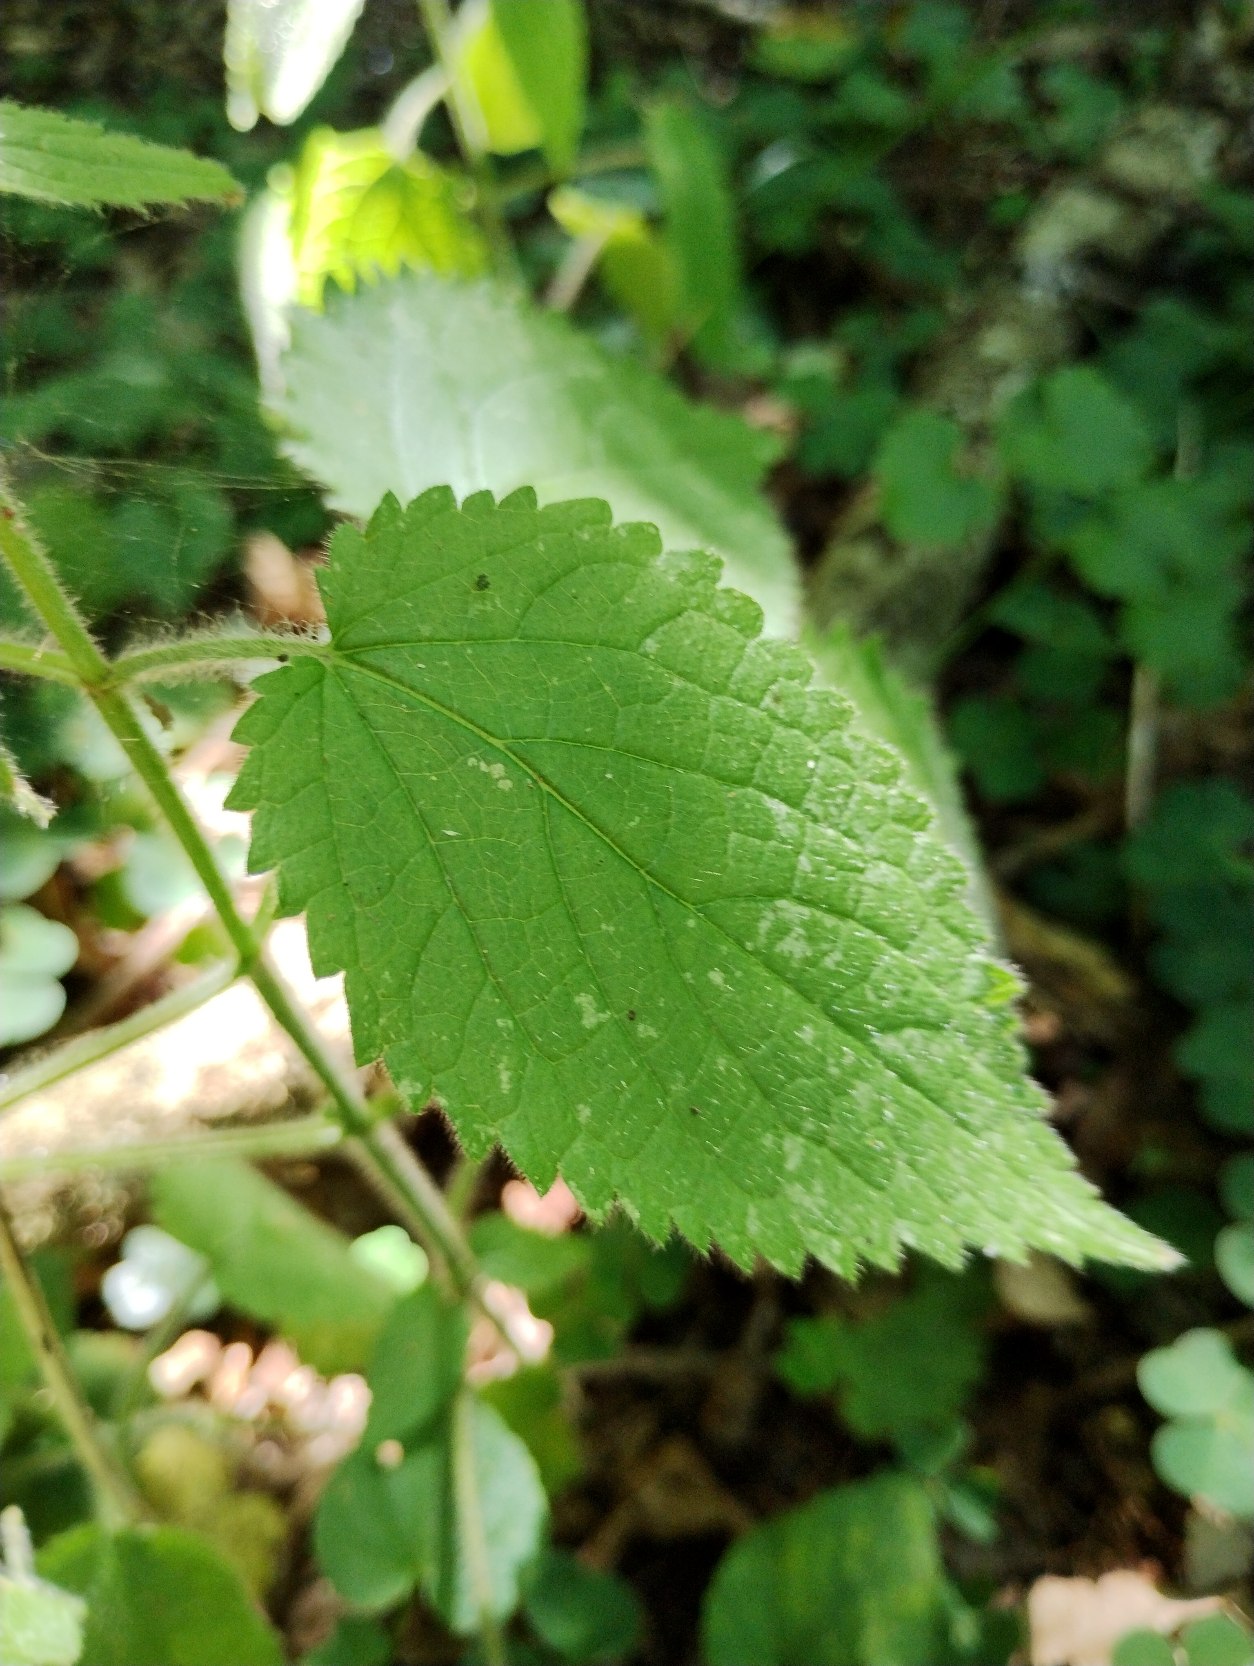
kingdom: Plantae
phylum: Tracheophyta
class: Magnoliopsida
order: Lamiales
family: Lamiaceae
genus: Stachys
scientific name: Stachys sylvatica
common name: Skov-galtetand
